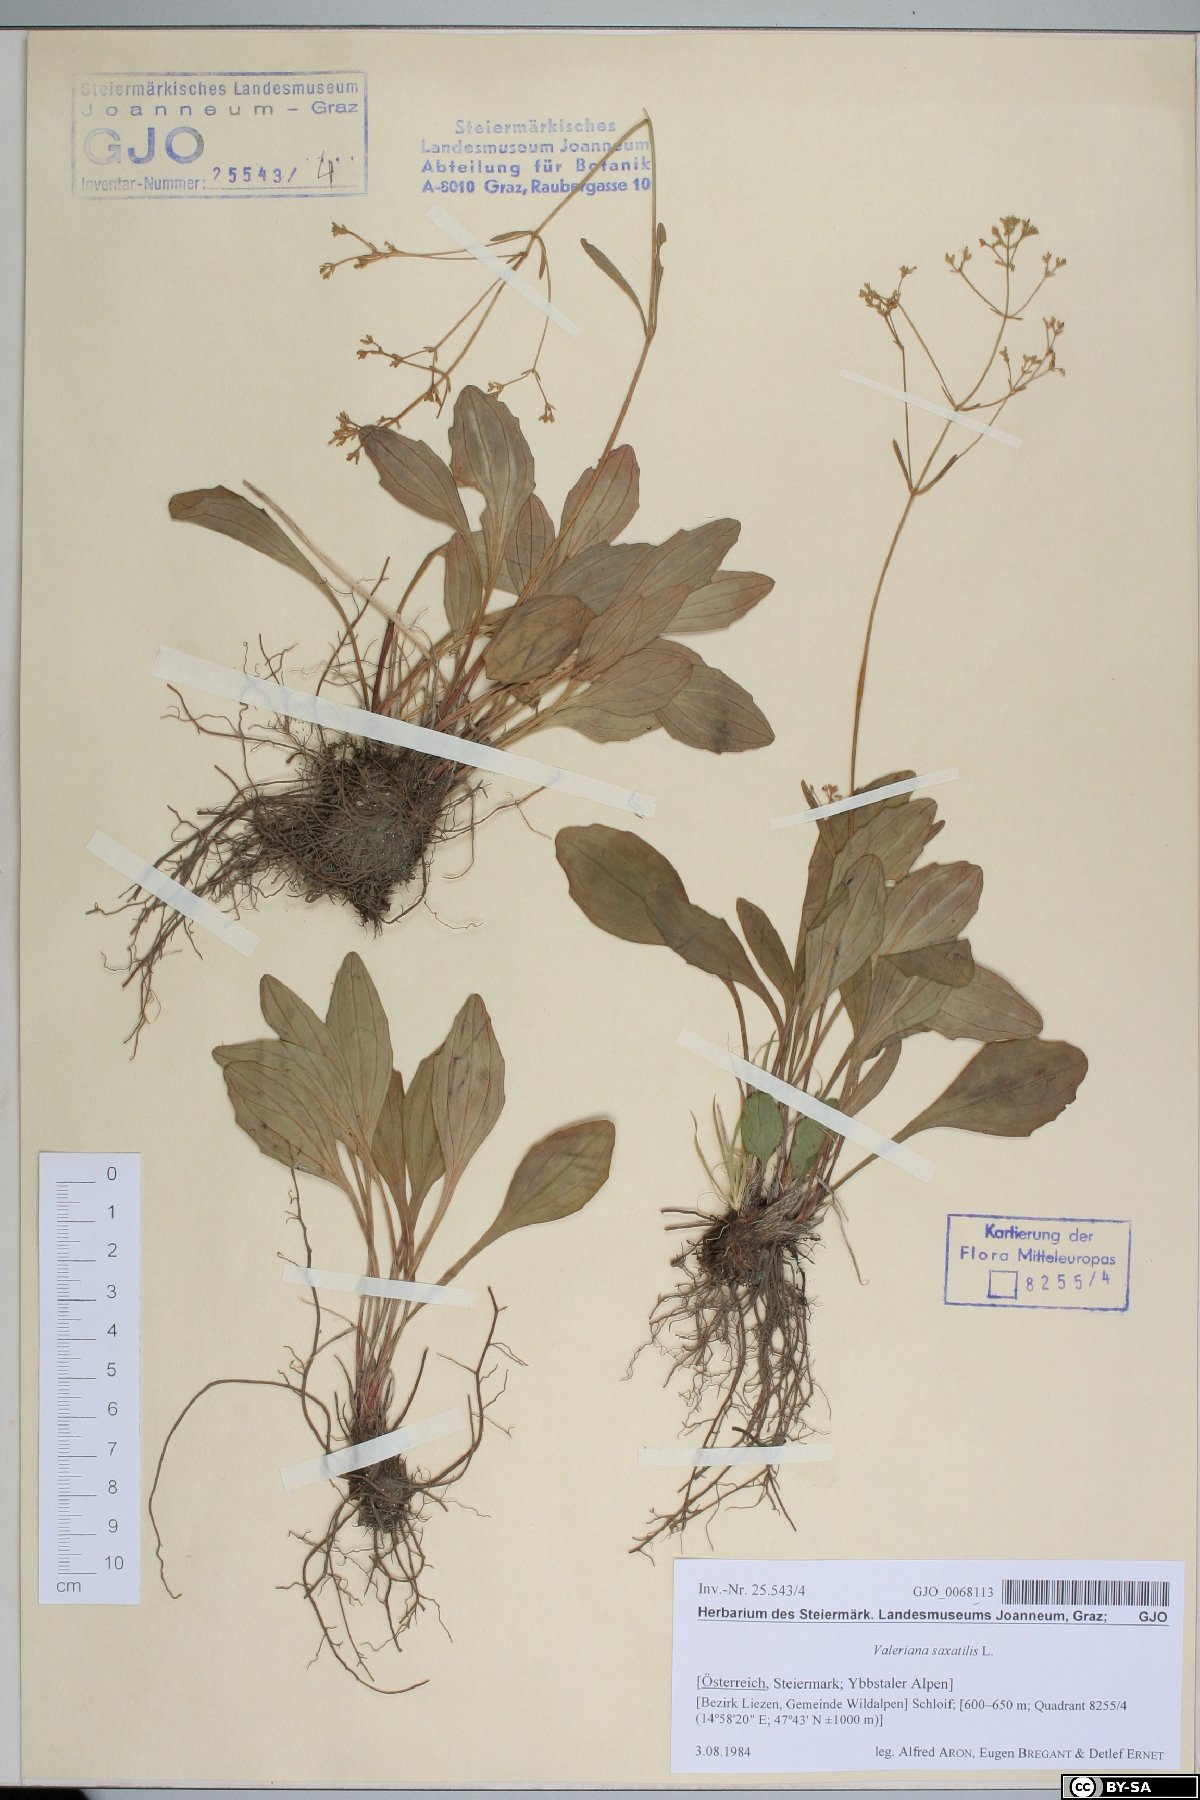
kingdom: Plantae
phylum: Tracheophyta
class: Magnoliopsida
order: Dipsacales
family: Caprifoliaceae
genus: Valeriana
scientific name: Valeriana saxatilis
